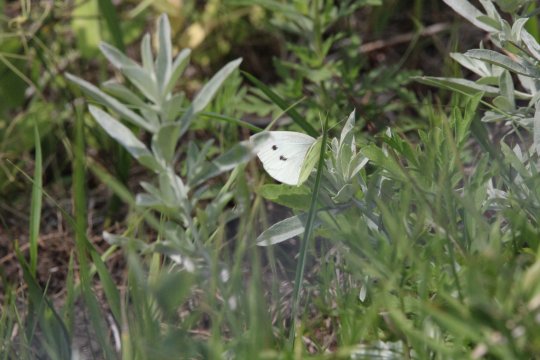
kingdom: Animalia
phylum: Arthropoda
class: Insecta
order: Lepidoptera
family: Pieridae
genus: Pieris
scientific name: Pieris rapae
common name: Cabbage White
